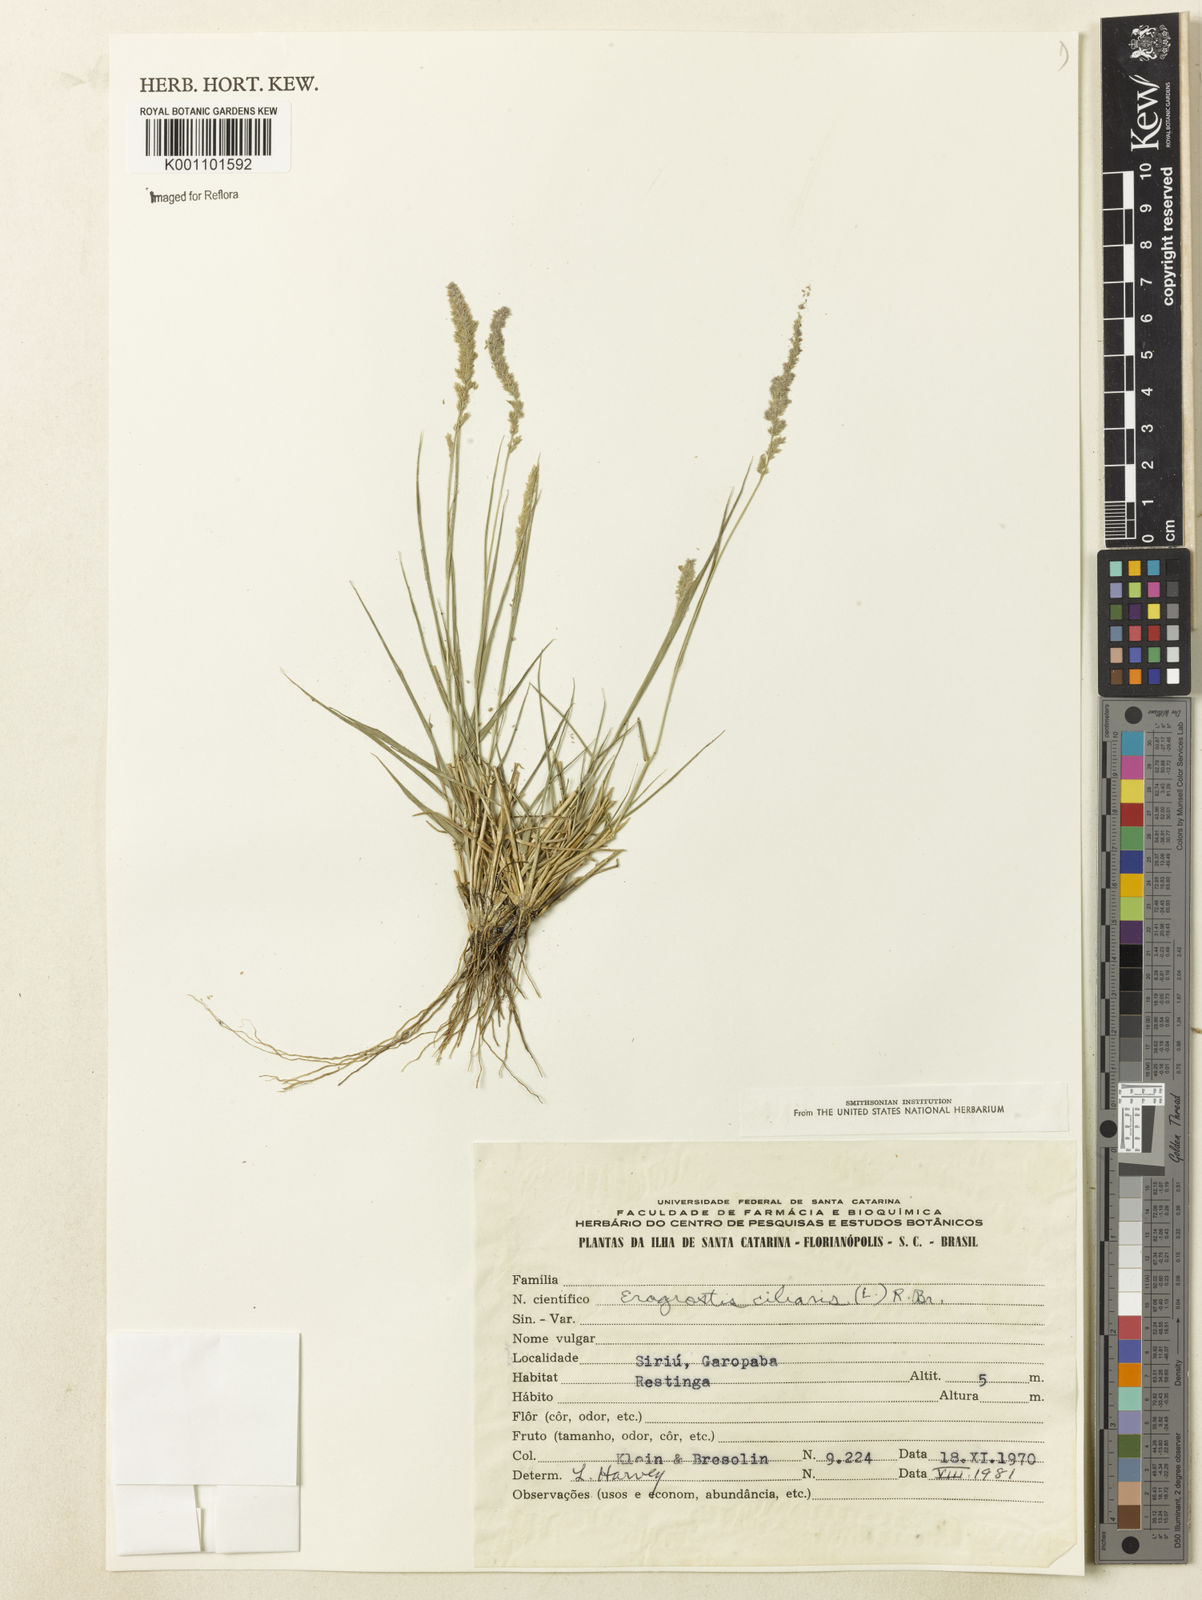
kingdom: Plantae
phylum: Tracheophyta
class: Liliopsida
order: Poales
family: Poaceae
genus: Eragrostis
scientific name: Eragrostis ciliaris
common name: Gophertail lovegrass
